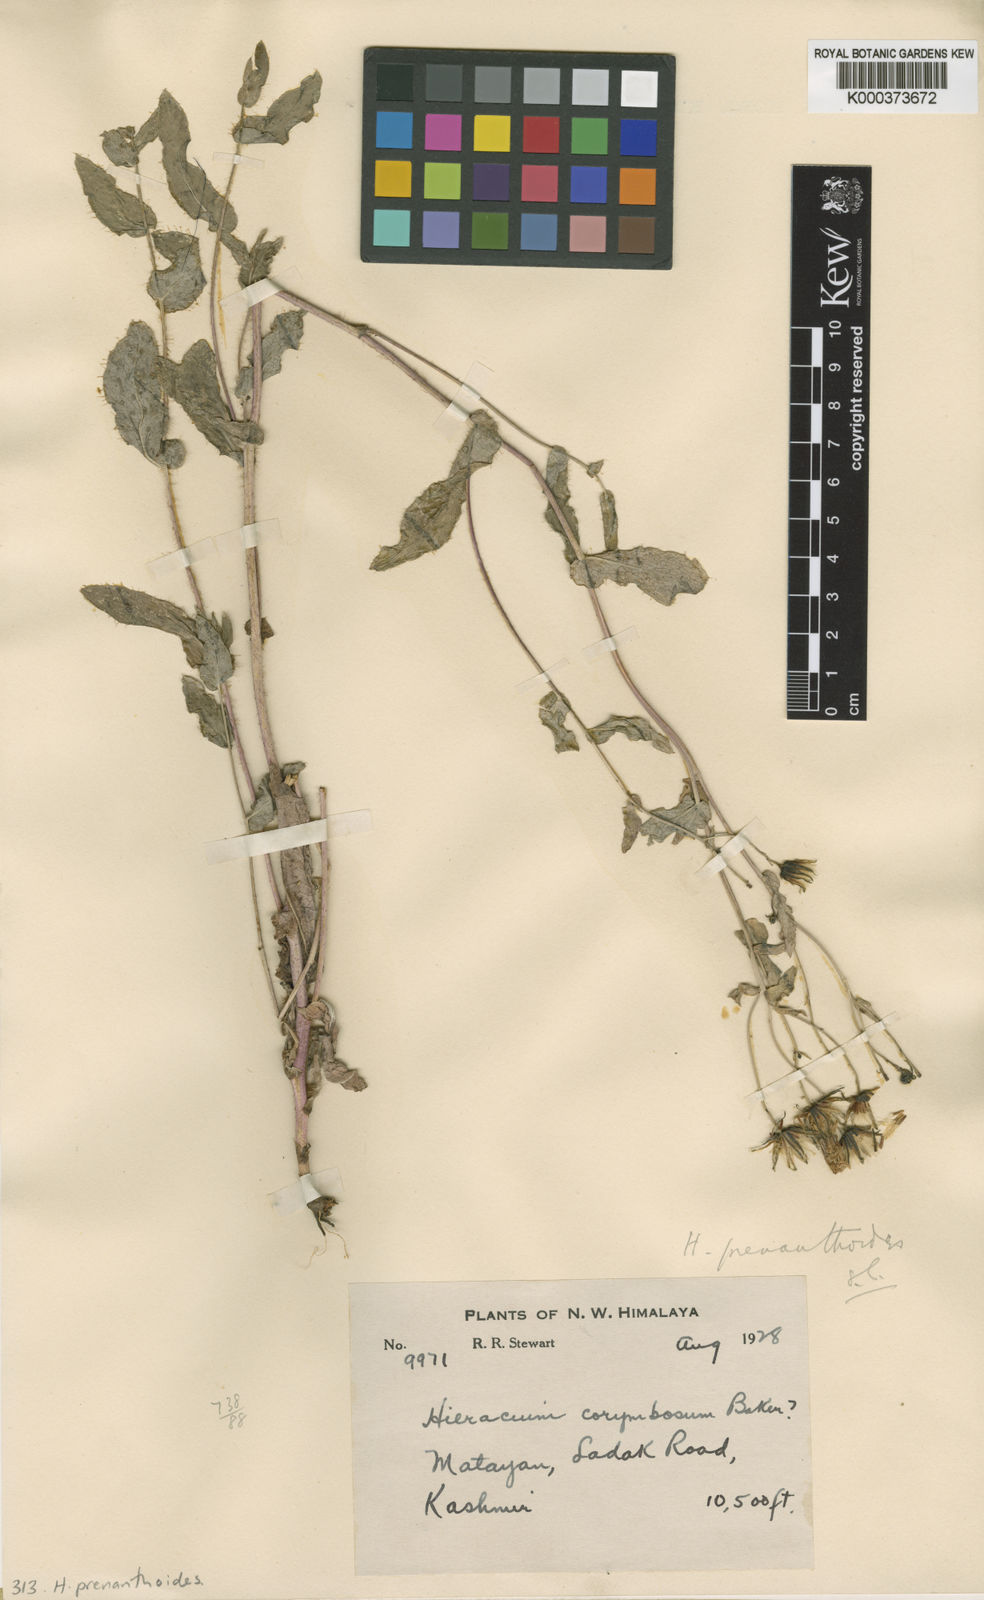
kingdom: Plantae
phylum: Tracheophyta
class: Magnoliopsida
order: Asterales
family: Asteraceae
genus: Hieracium
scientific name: Hieracium prenanthoides
